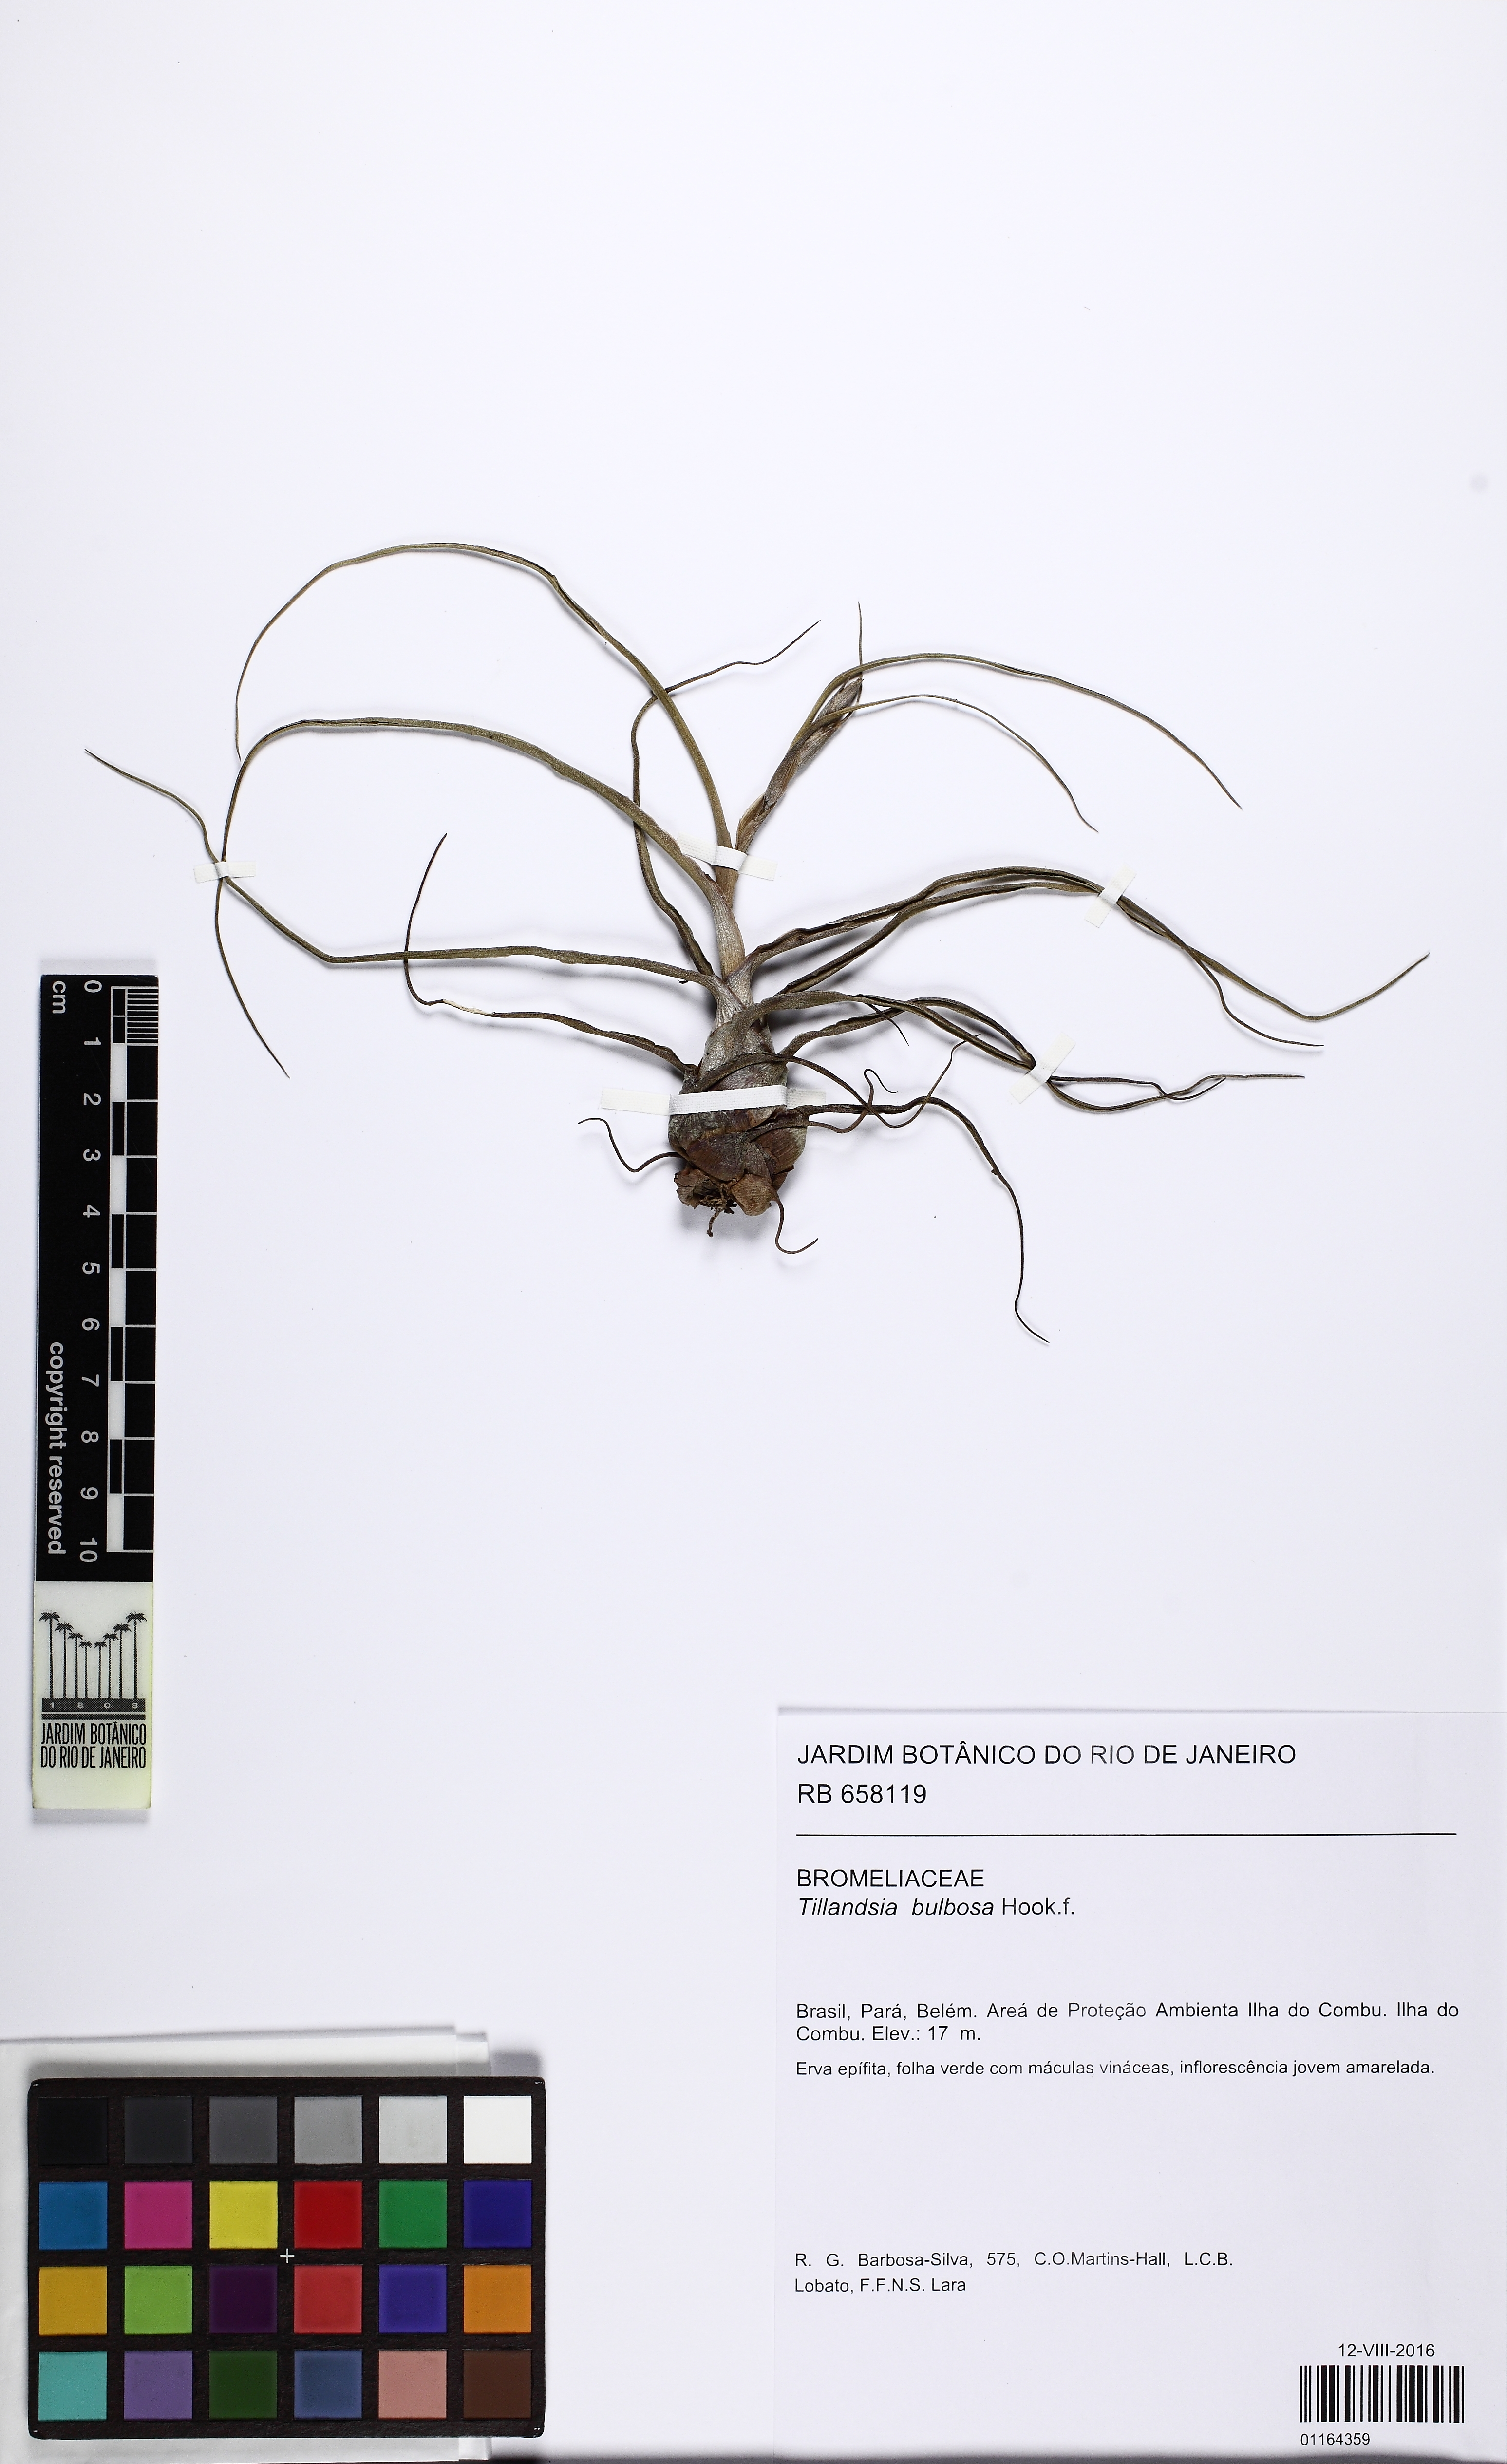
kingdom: Plantae
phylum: Tracheophyta
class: Liliopsida
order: Poales
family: Bromeliaceae
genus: Tillandsia
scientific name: Tillandsia bulbosa
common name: Bulbous airplant
